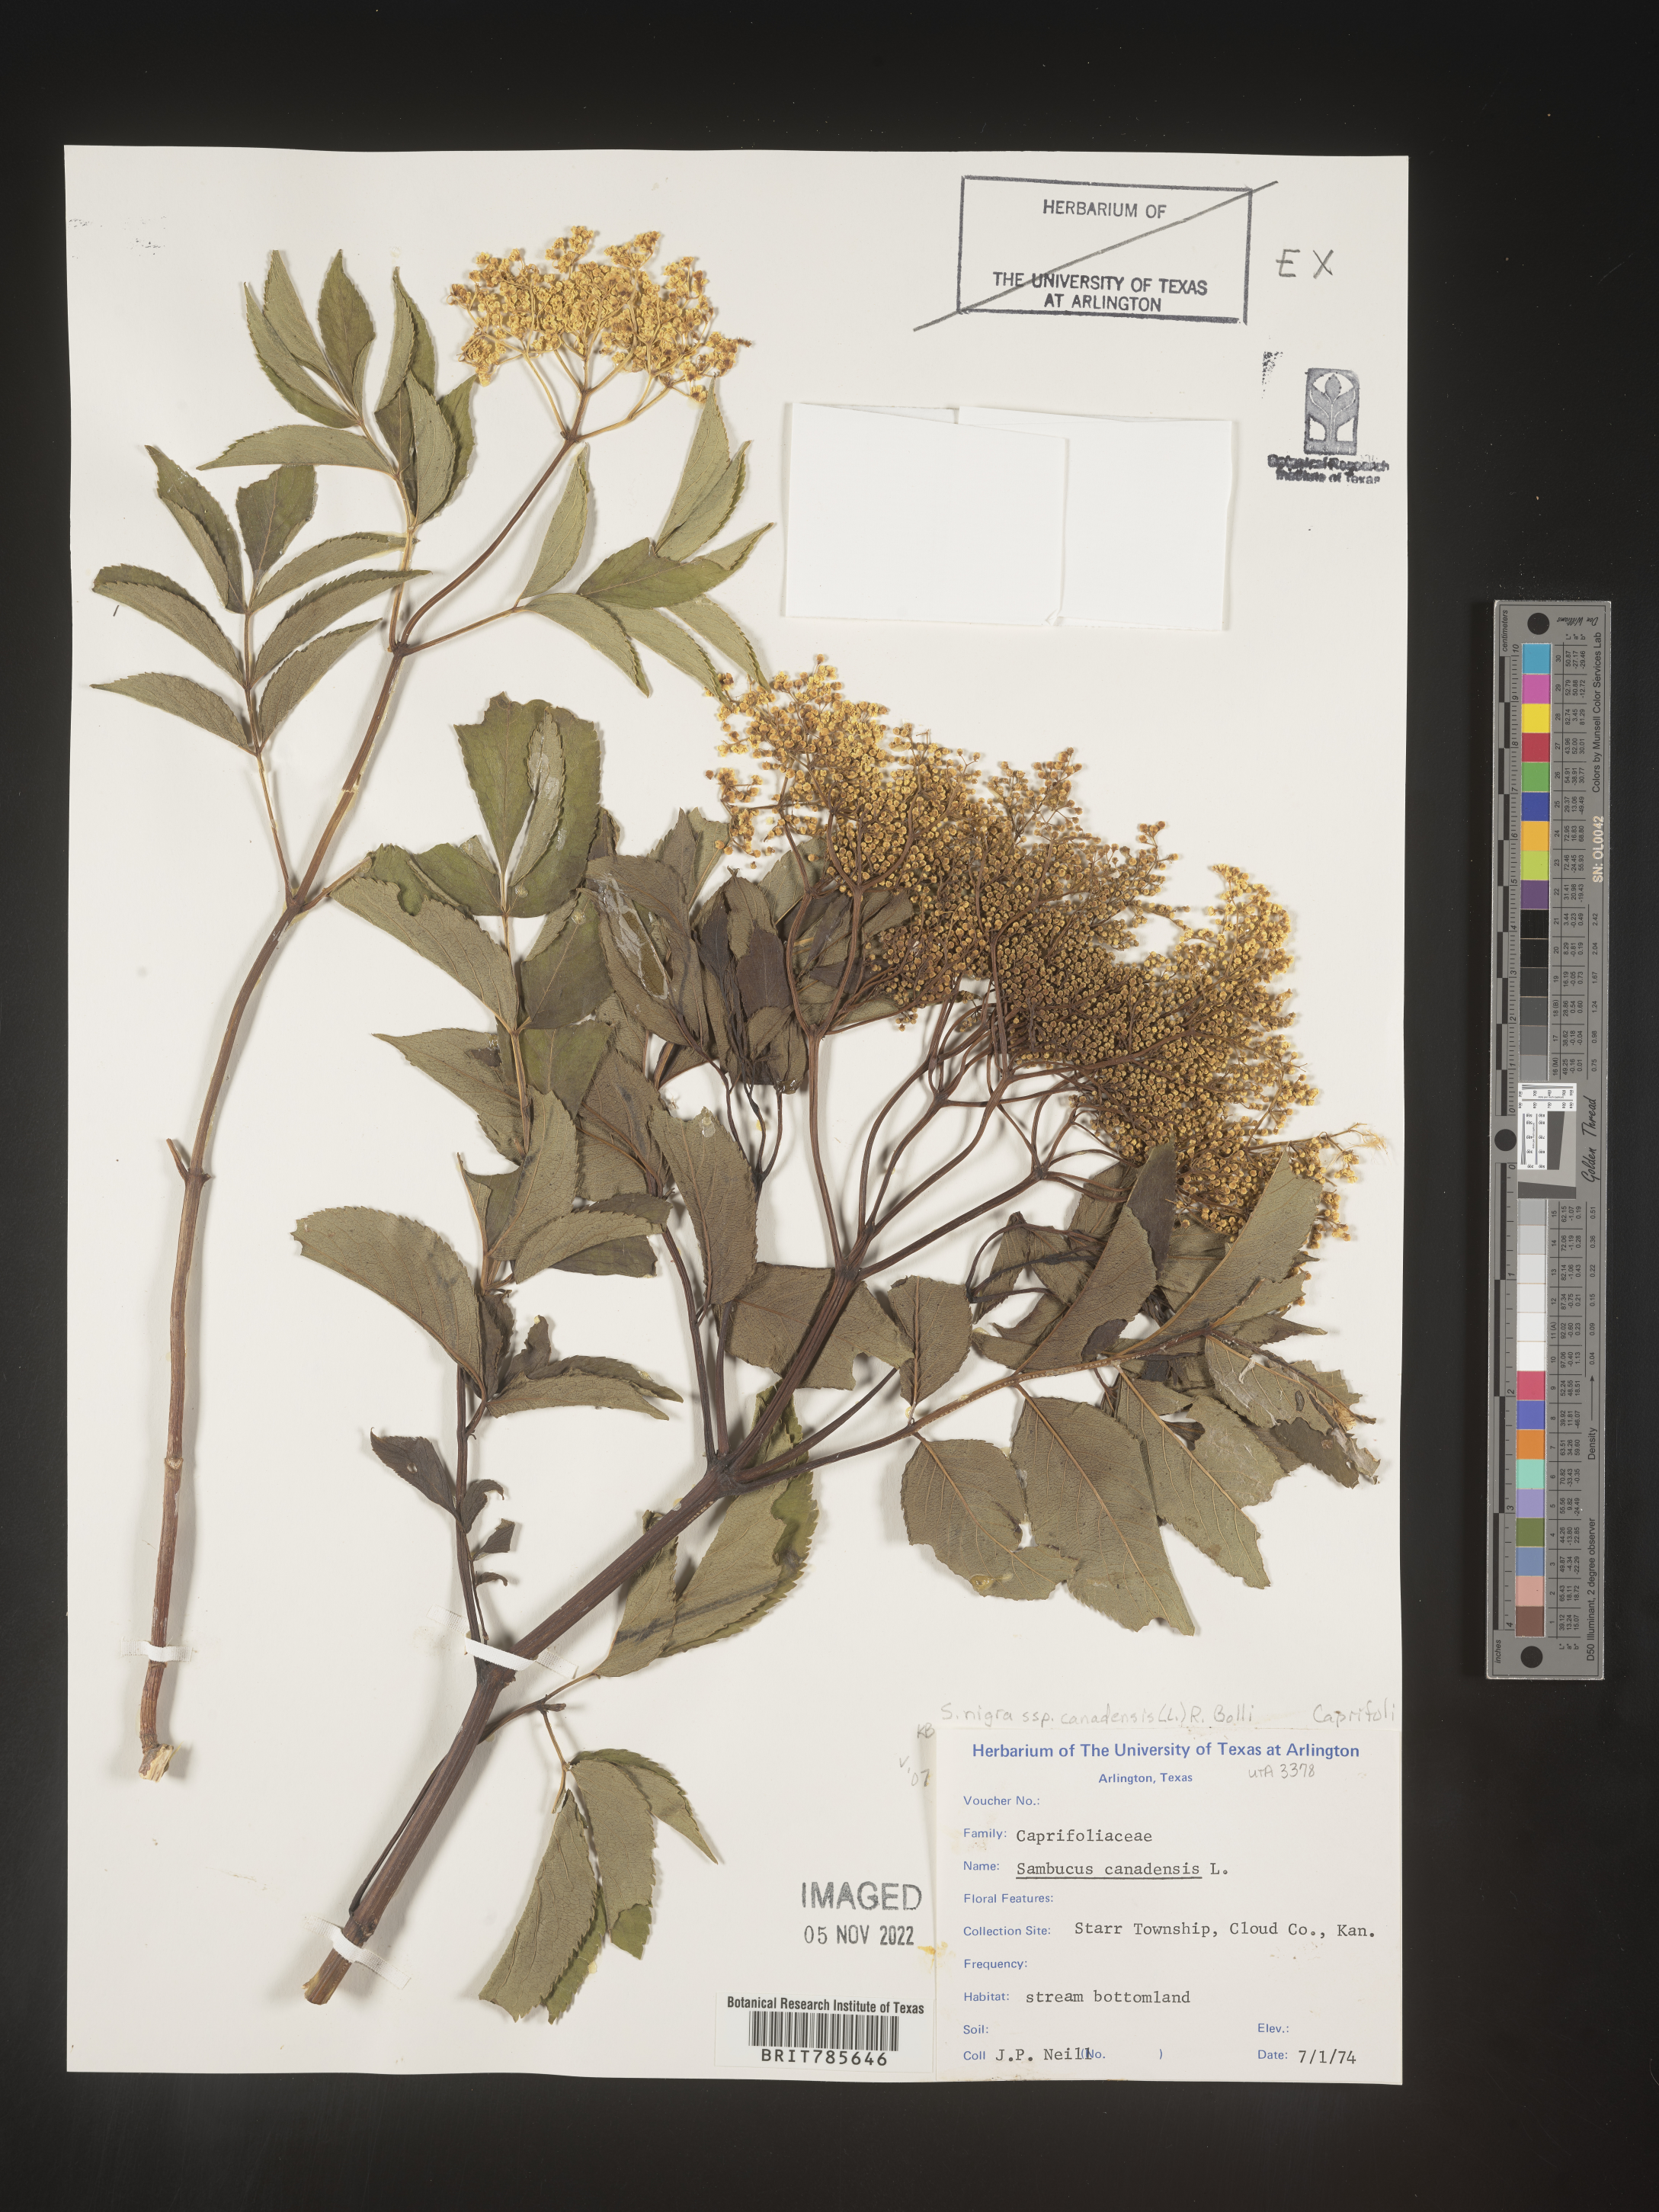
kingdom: Plantae
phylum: Tracheophyta
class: Magnoliopsida
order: Dipsacales
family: Viburnaceae
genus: Sambucus
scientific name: Sambucus canadensis
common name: American elder
